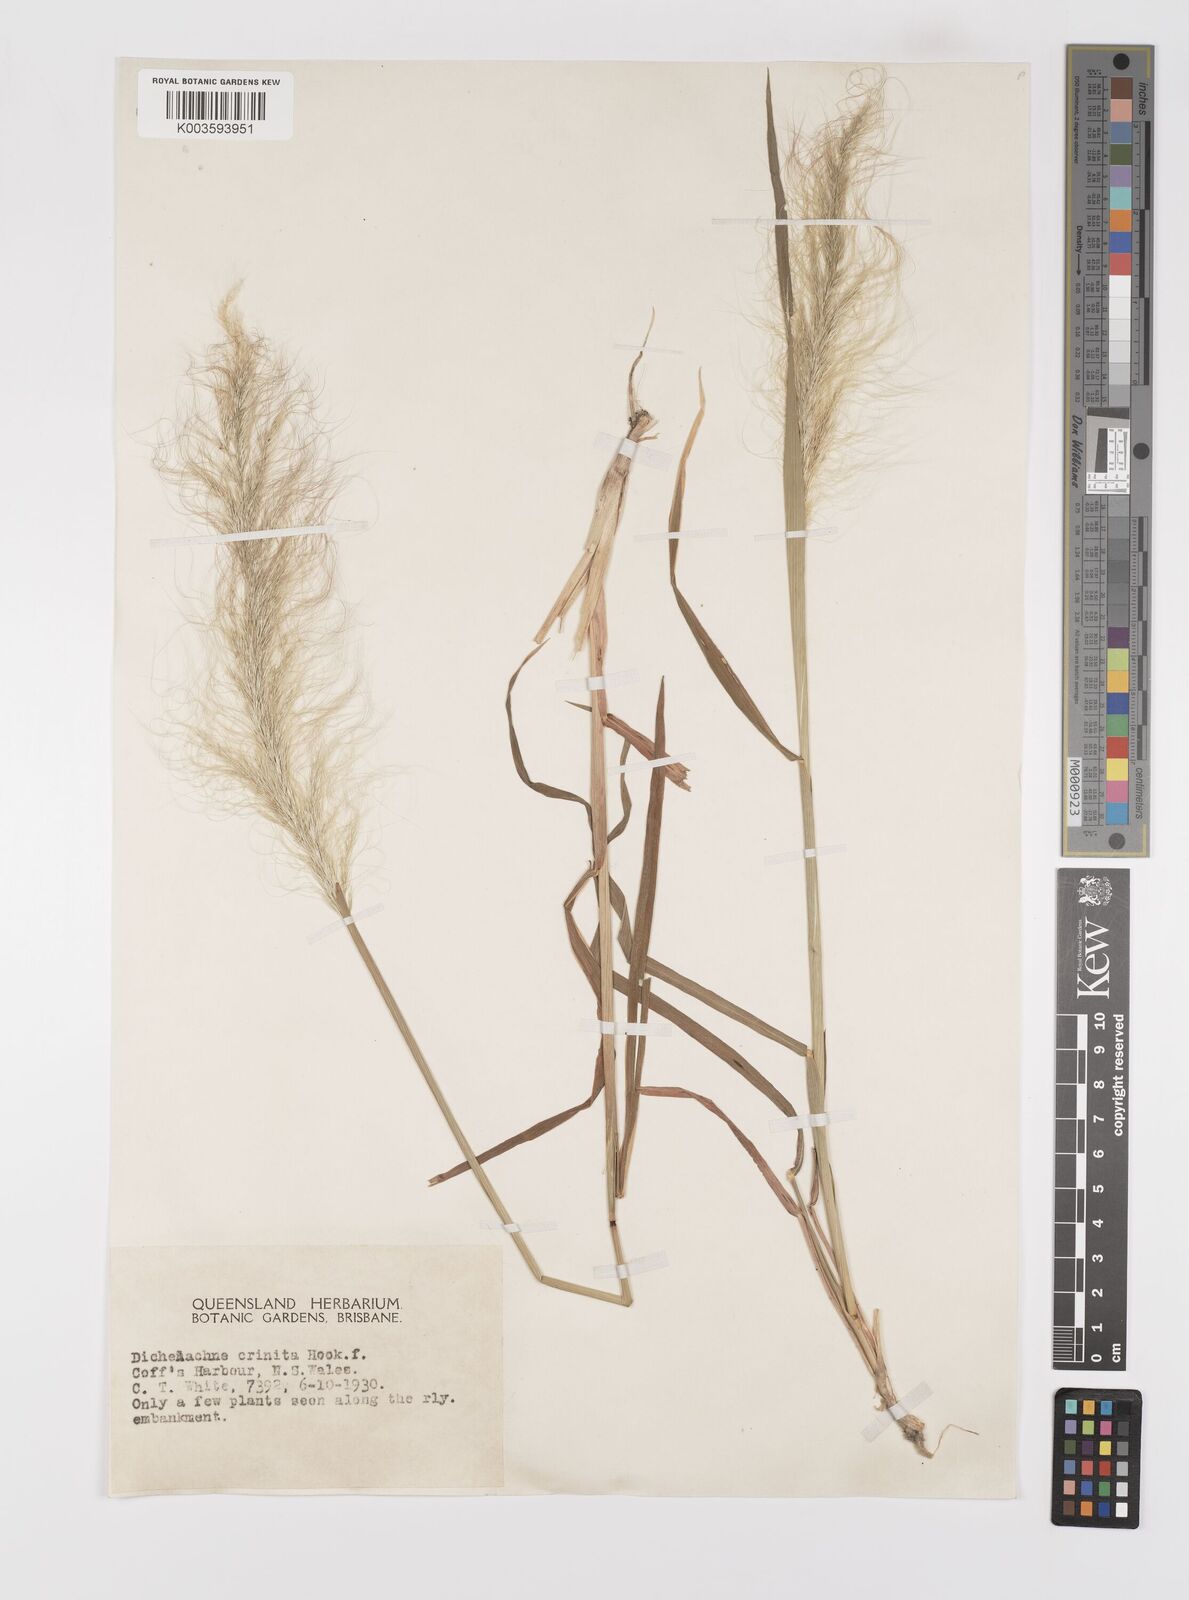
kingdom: Plantae
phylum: Tracheophyta
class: Liliopsida
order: Poales
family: Poaceae
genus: Dichelachne
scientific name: Dichelachne
